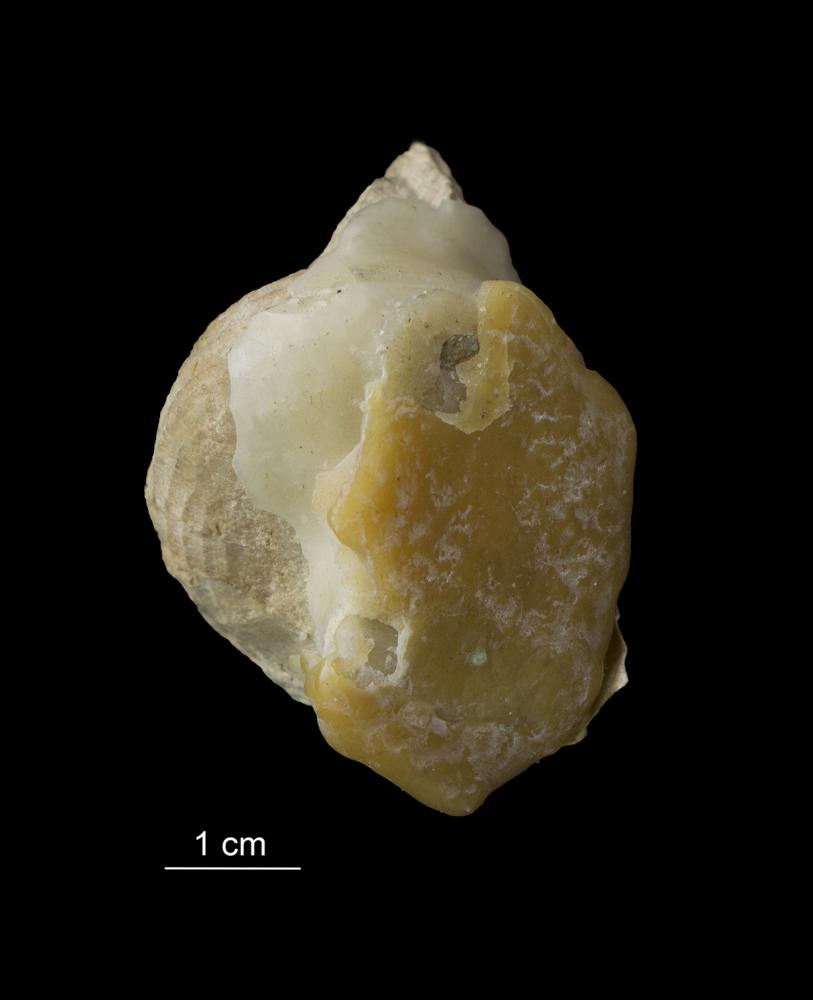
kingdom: Animalia
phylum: Mollusca
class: Gastropoda
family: Platyceratidae
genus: Cyclonema
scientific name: Cyclonema Turbo rupestre
